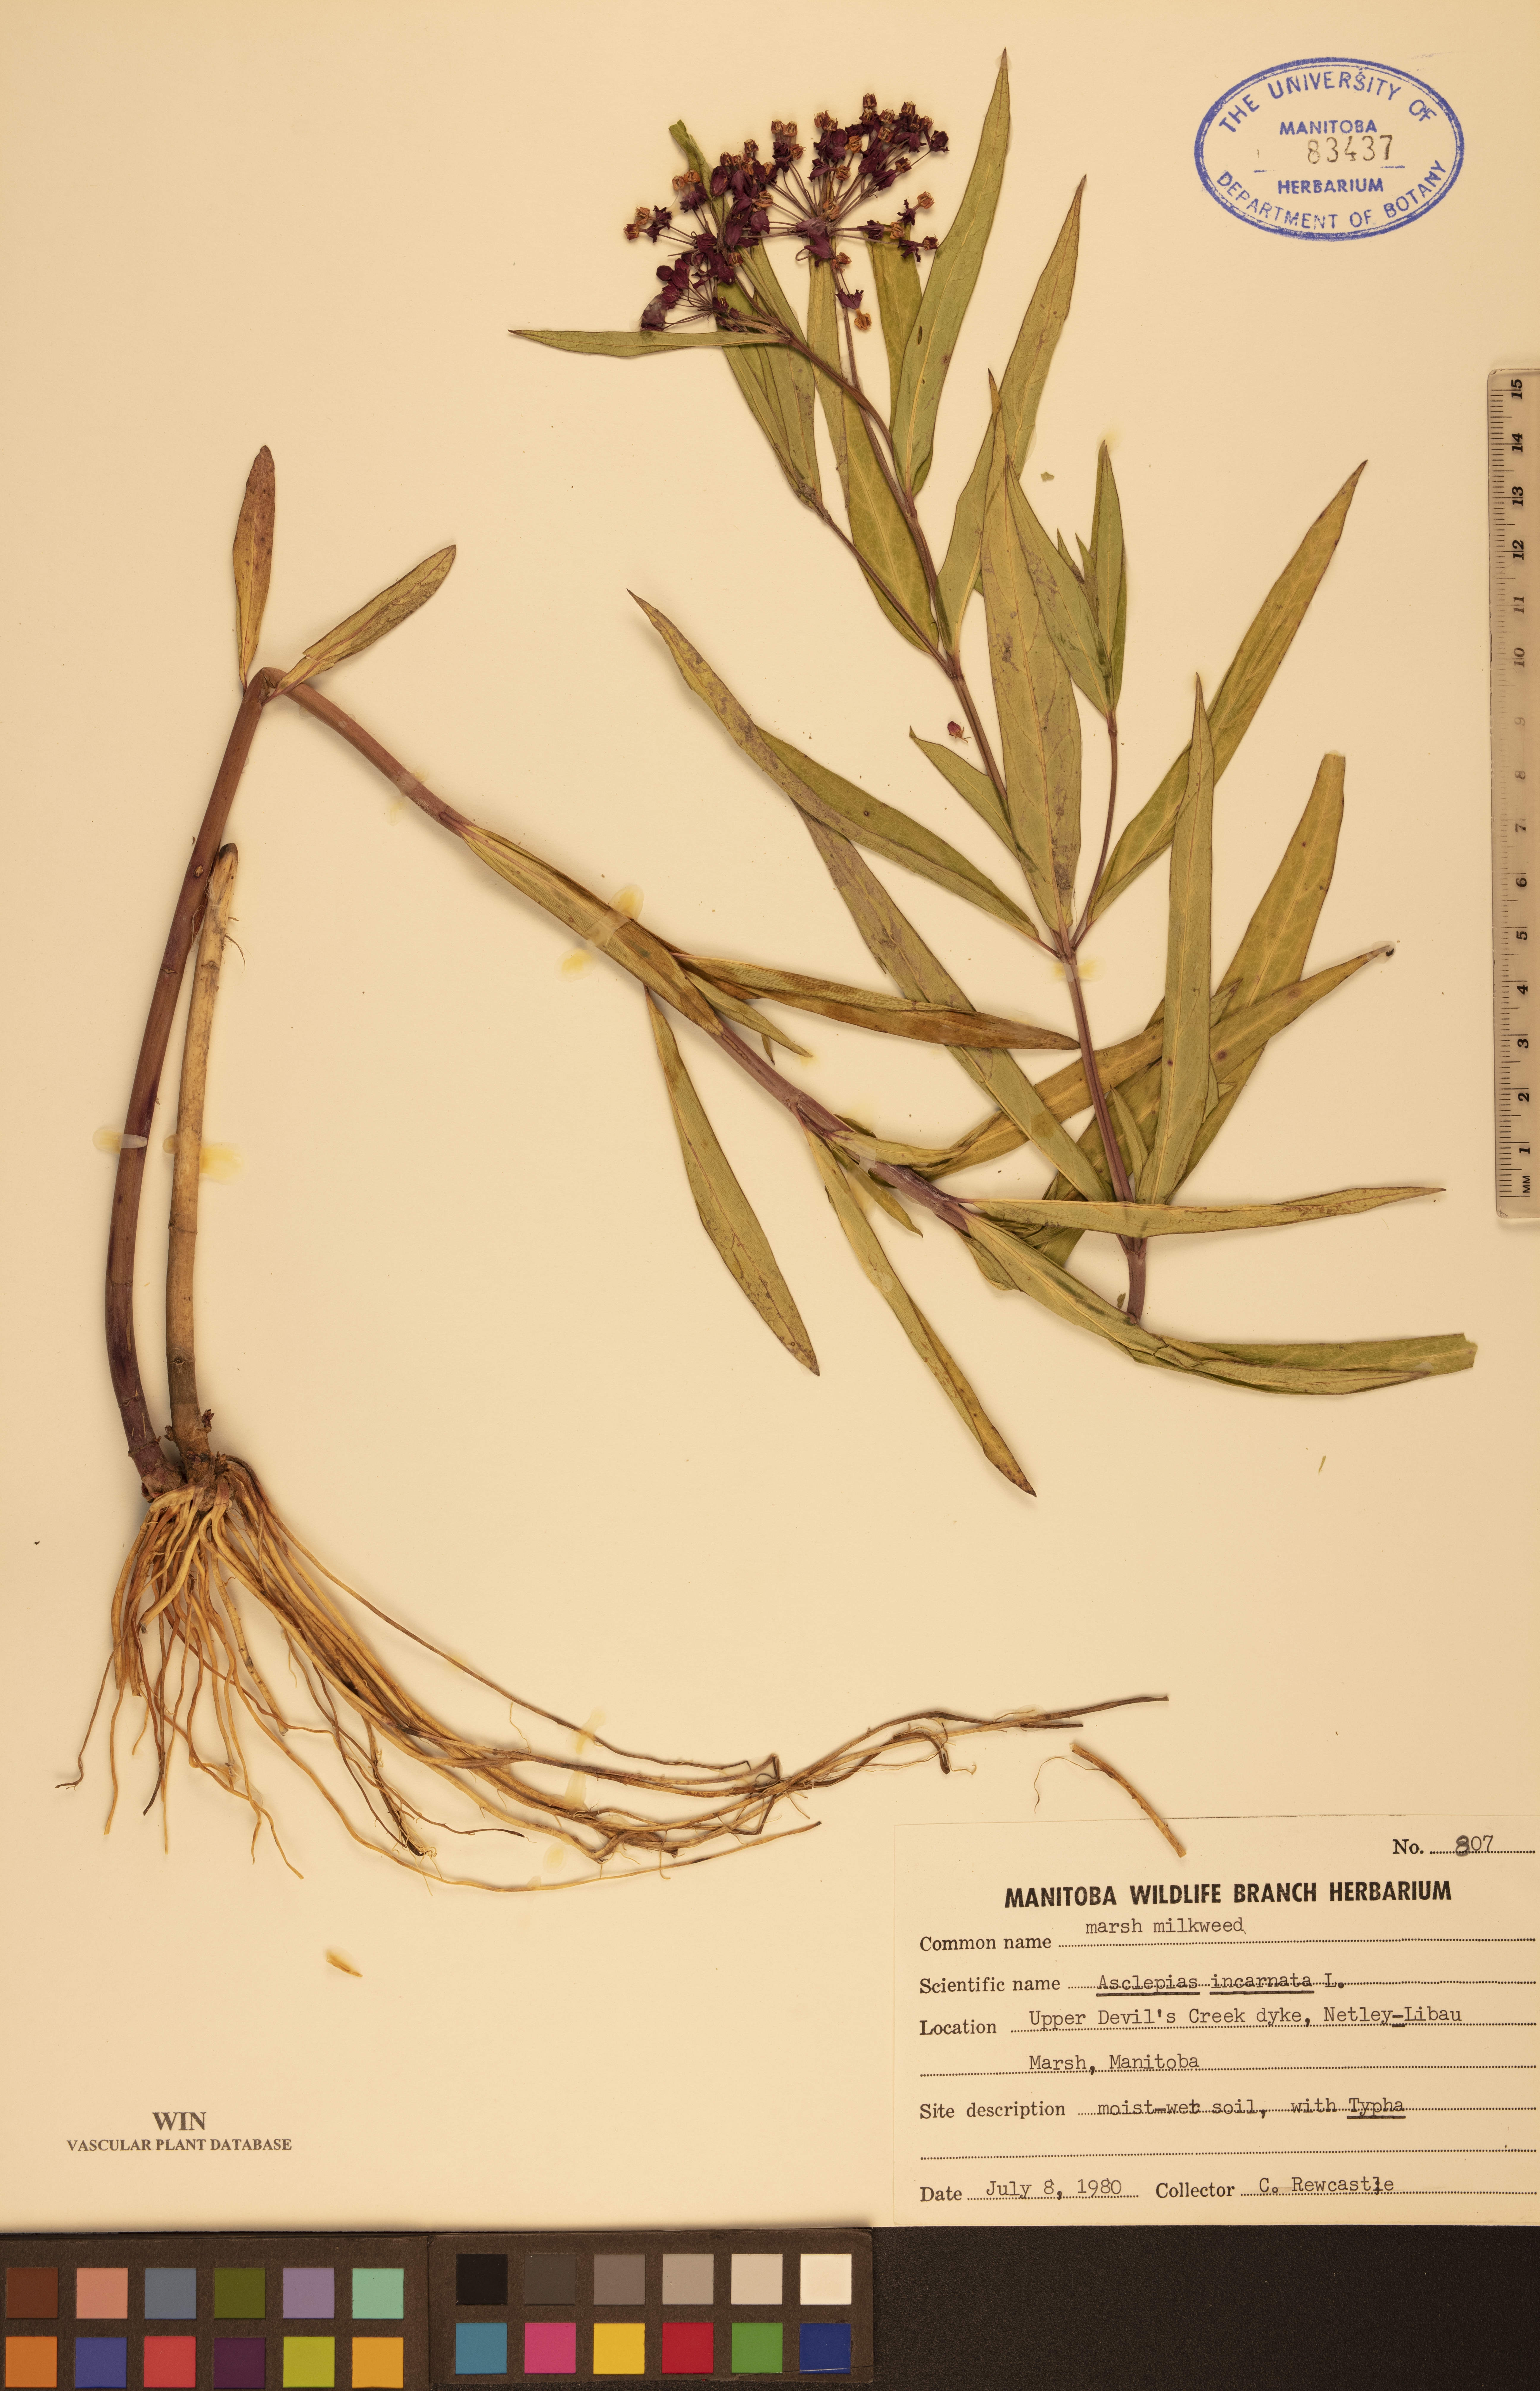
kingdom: Plantae
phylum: Tracheophyta
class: Magnoliopsida
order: Gentianales
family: Apocynaceae
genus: Asclepias
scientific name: Asclepias incarnata
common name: Swamp milkweed
